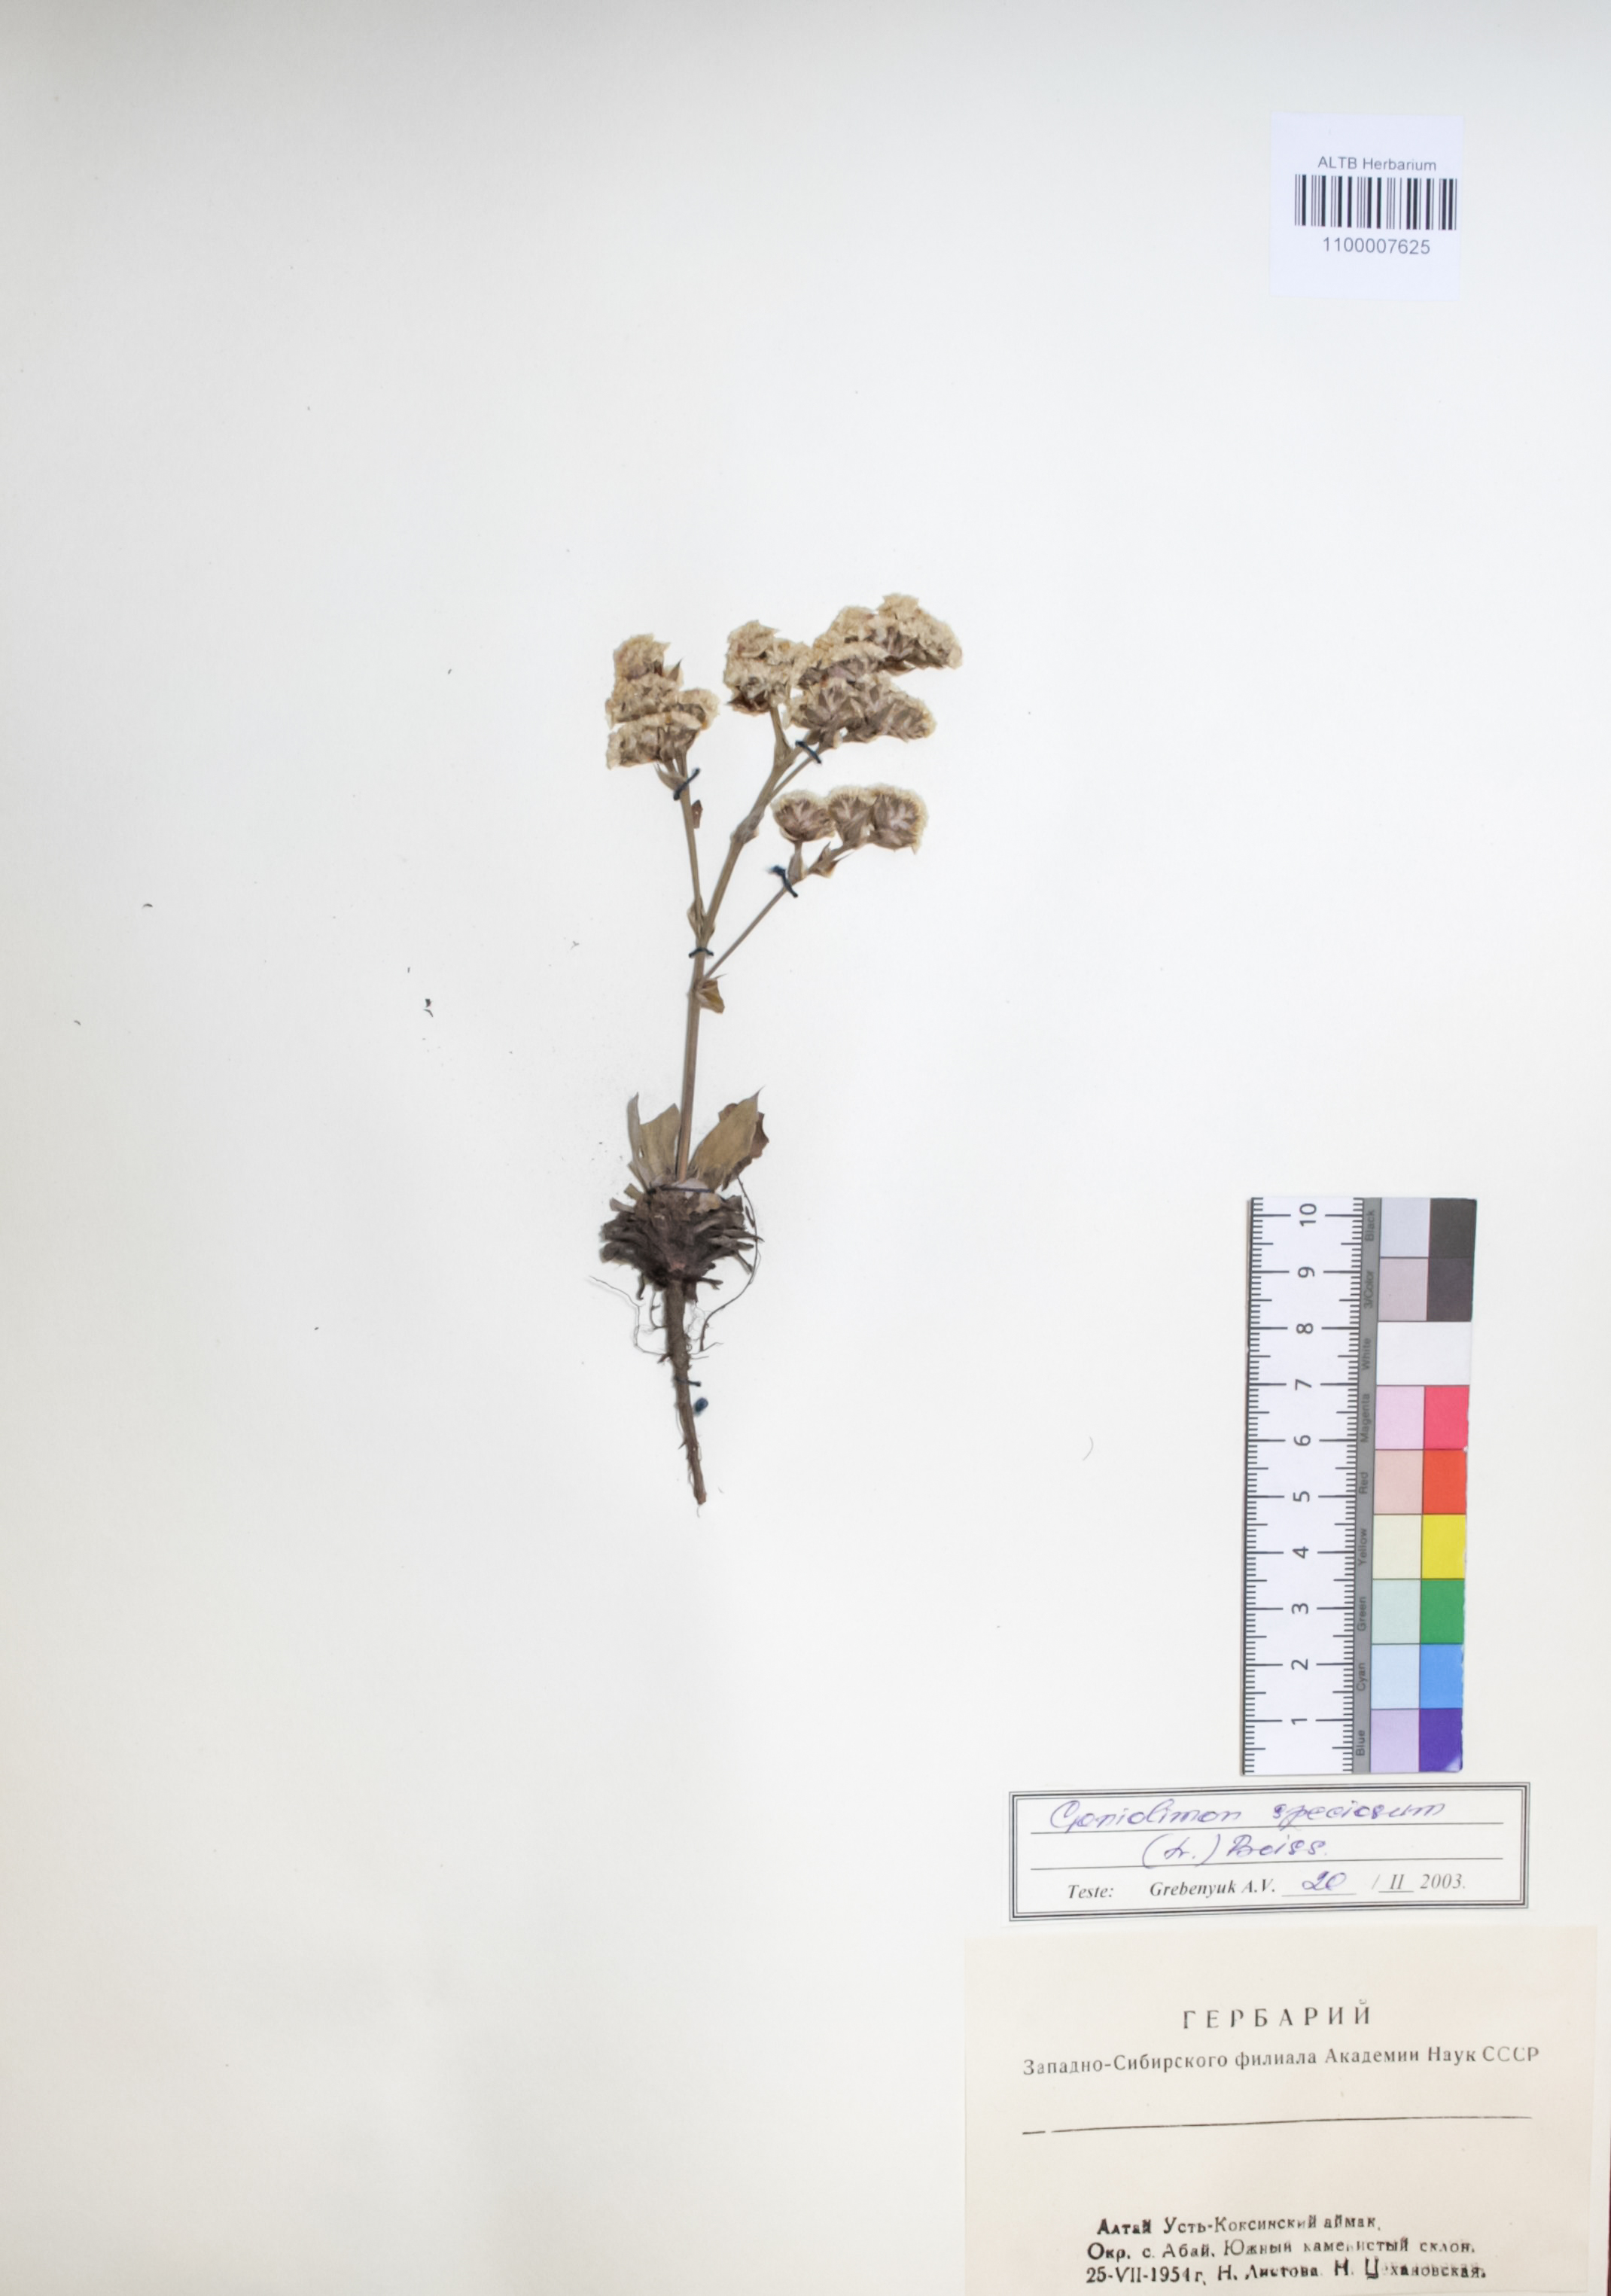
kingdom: Plantae
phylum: Tracheophyta
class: Magnoliopsida
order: Caryophyllales
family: Plumbaginaceae
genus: Goniolimon
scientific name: Goniolimon speciosum
